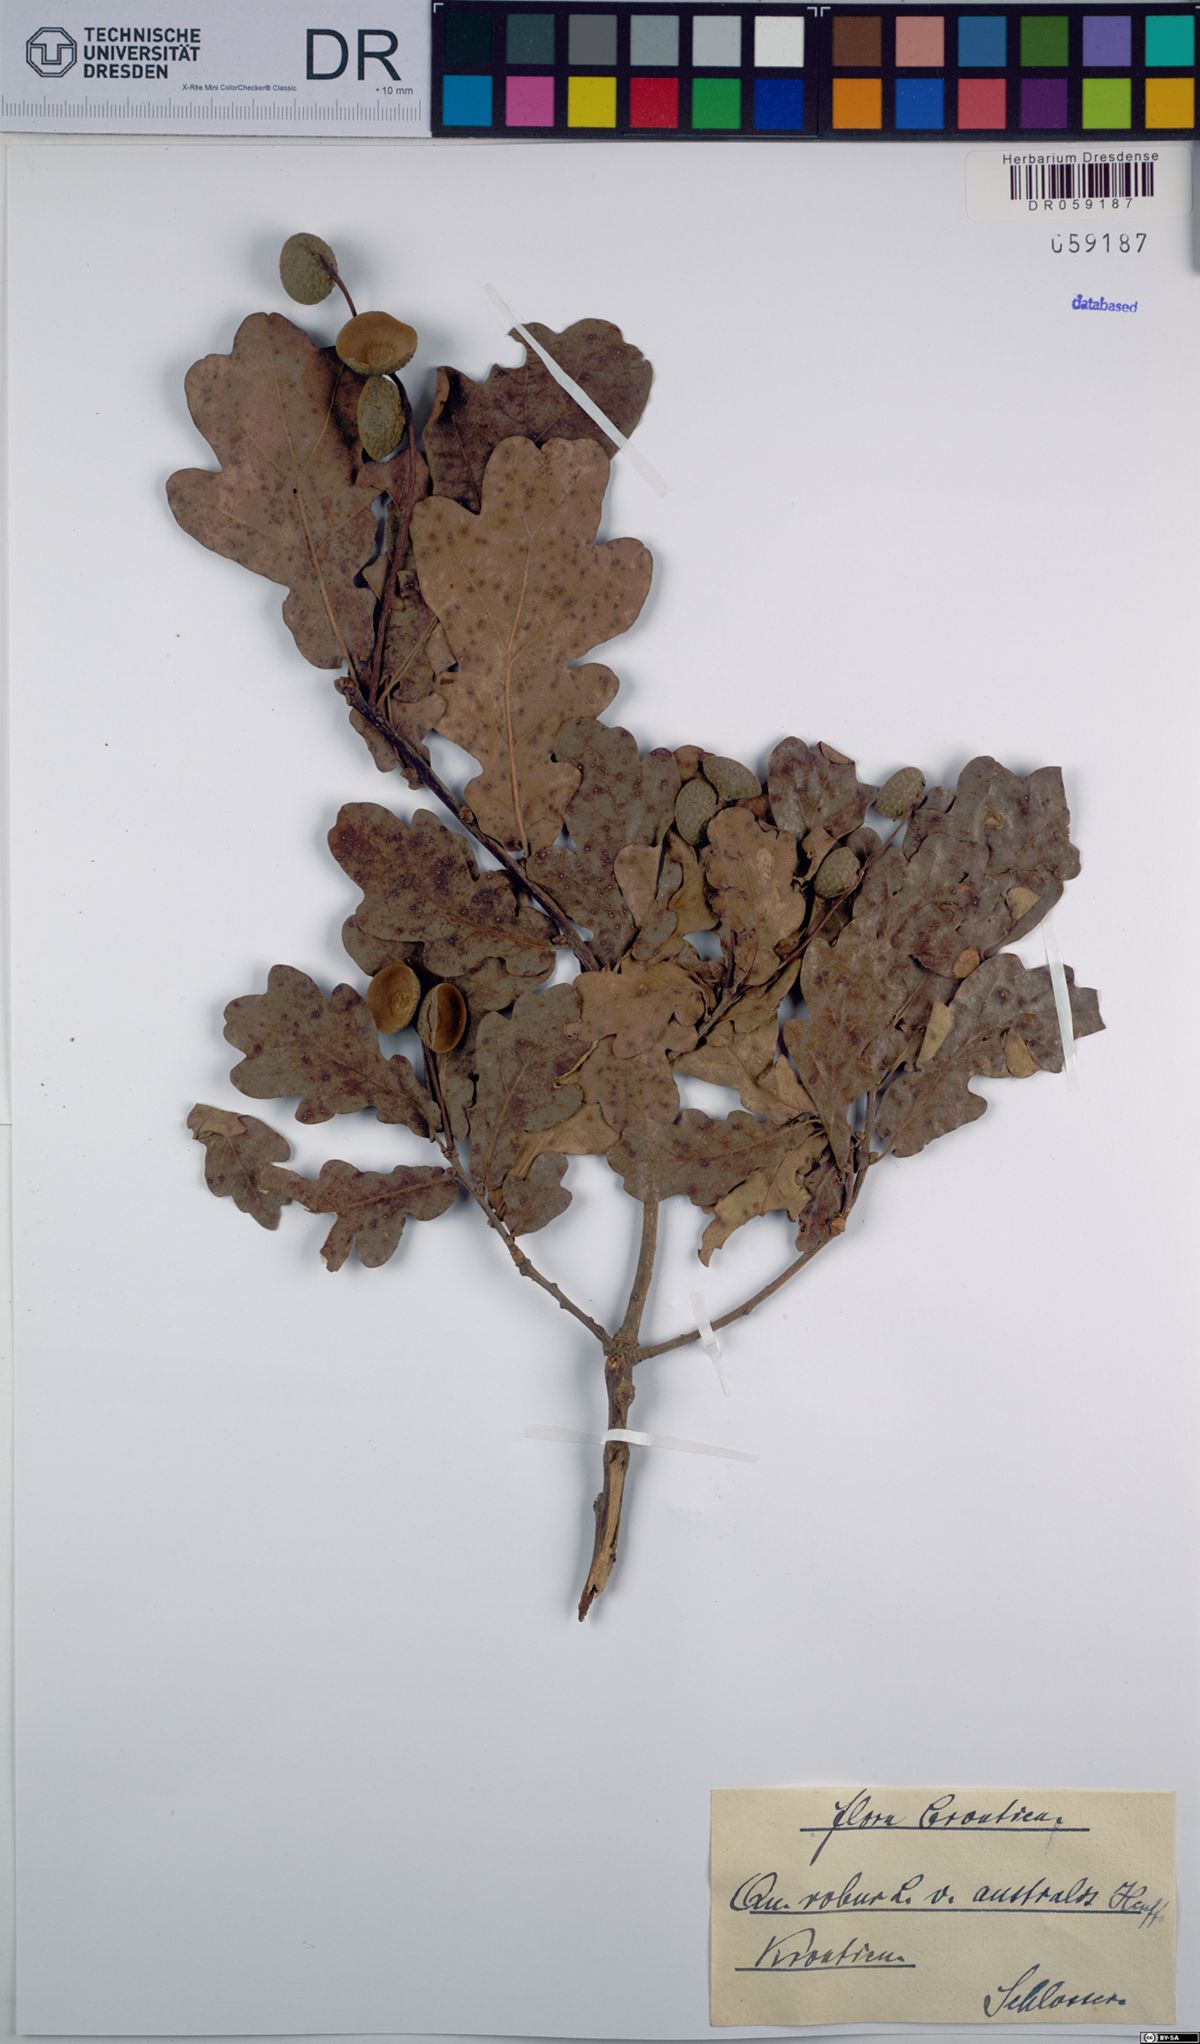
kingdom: Plantae
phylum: Tracheophyta
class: Magnoliopsida
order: Fagales
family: Fagaceae
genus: Quercus
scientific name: Quercus robur
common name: Pedunculate oak
